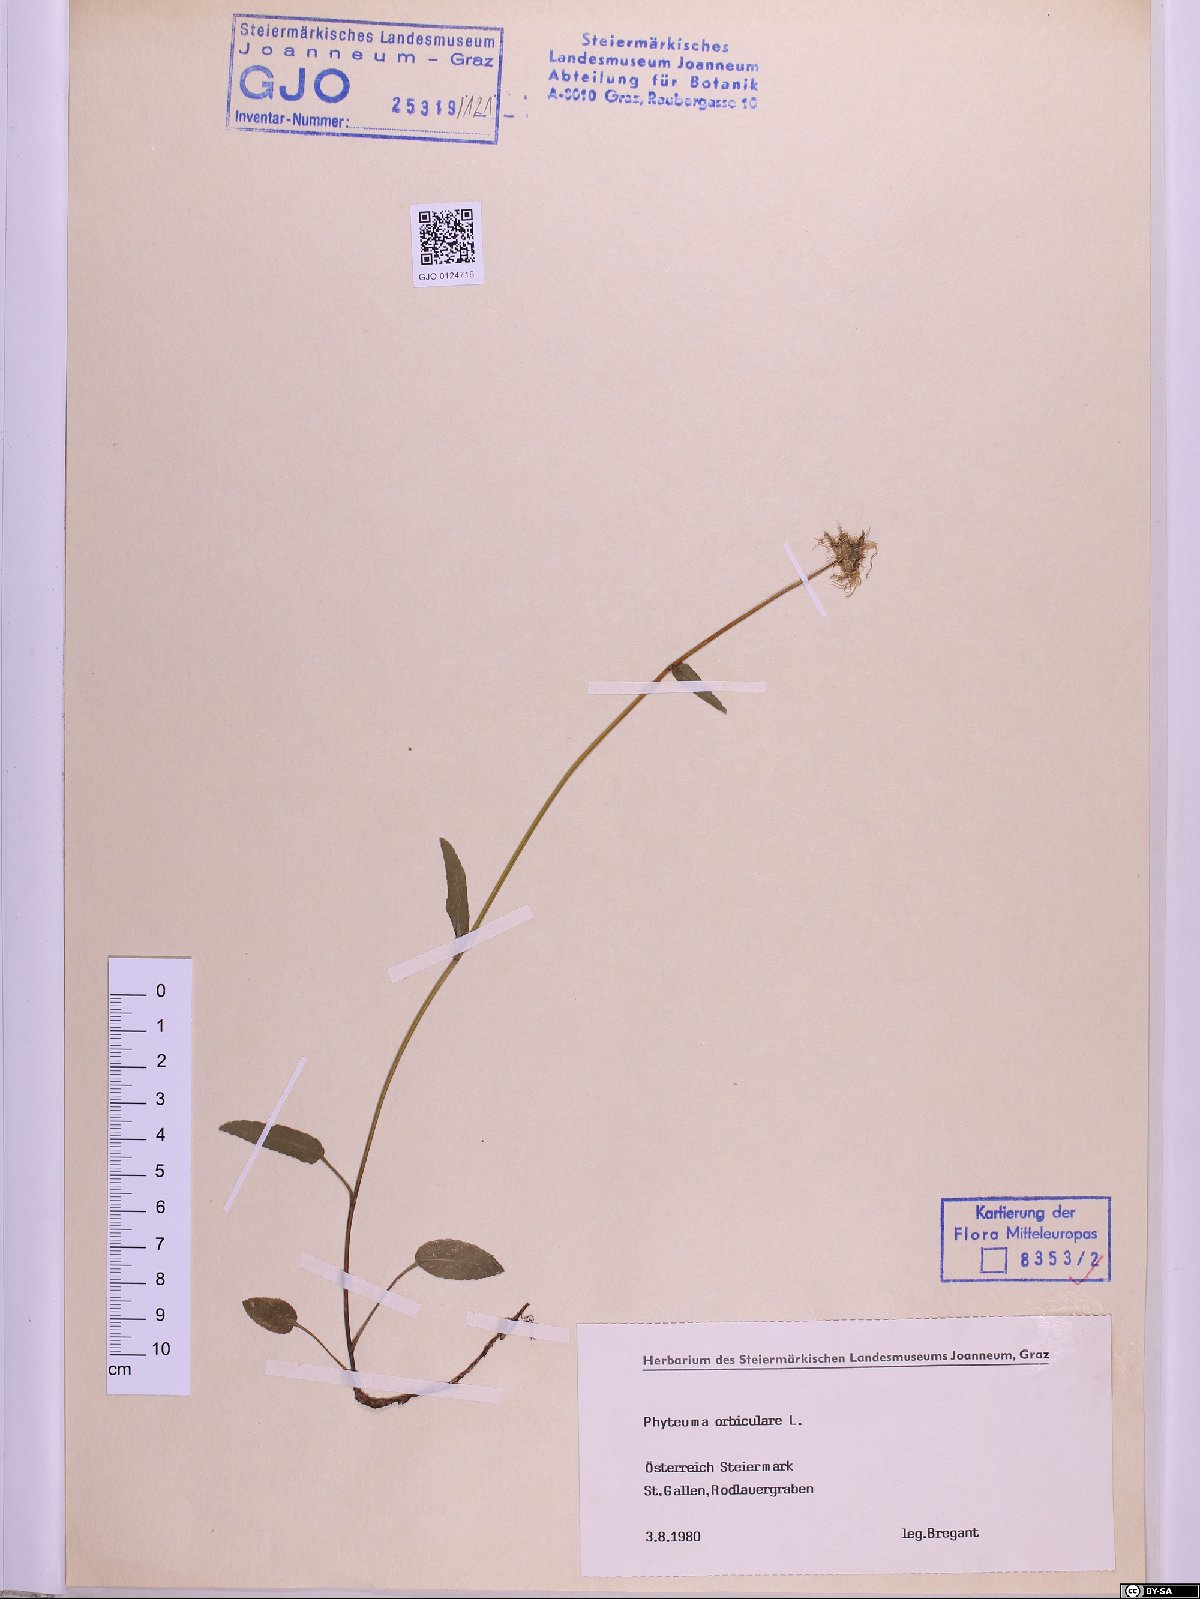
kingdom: Plantae
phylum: Tracheophyta
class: Magnoliopsida
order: Asterales
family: Campanulaceae
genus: Phyteuma
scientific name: Phyteuma orbiculare
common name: Round-headed rampion
